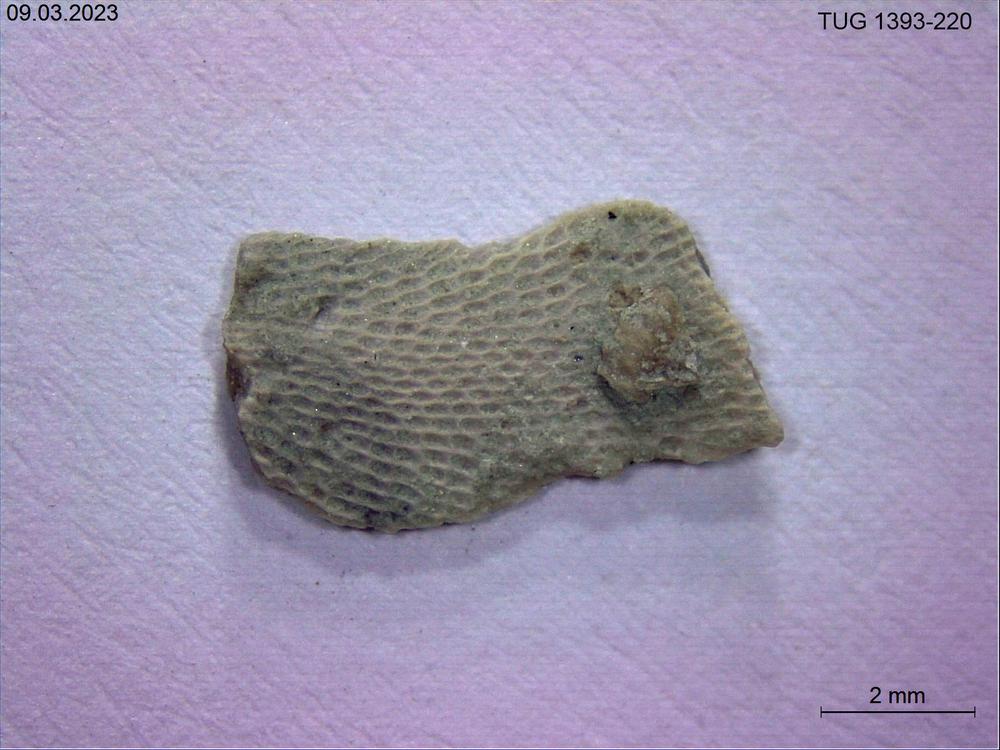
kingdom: Animalia
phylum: Bryozoa
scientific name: Bryozoa
